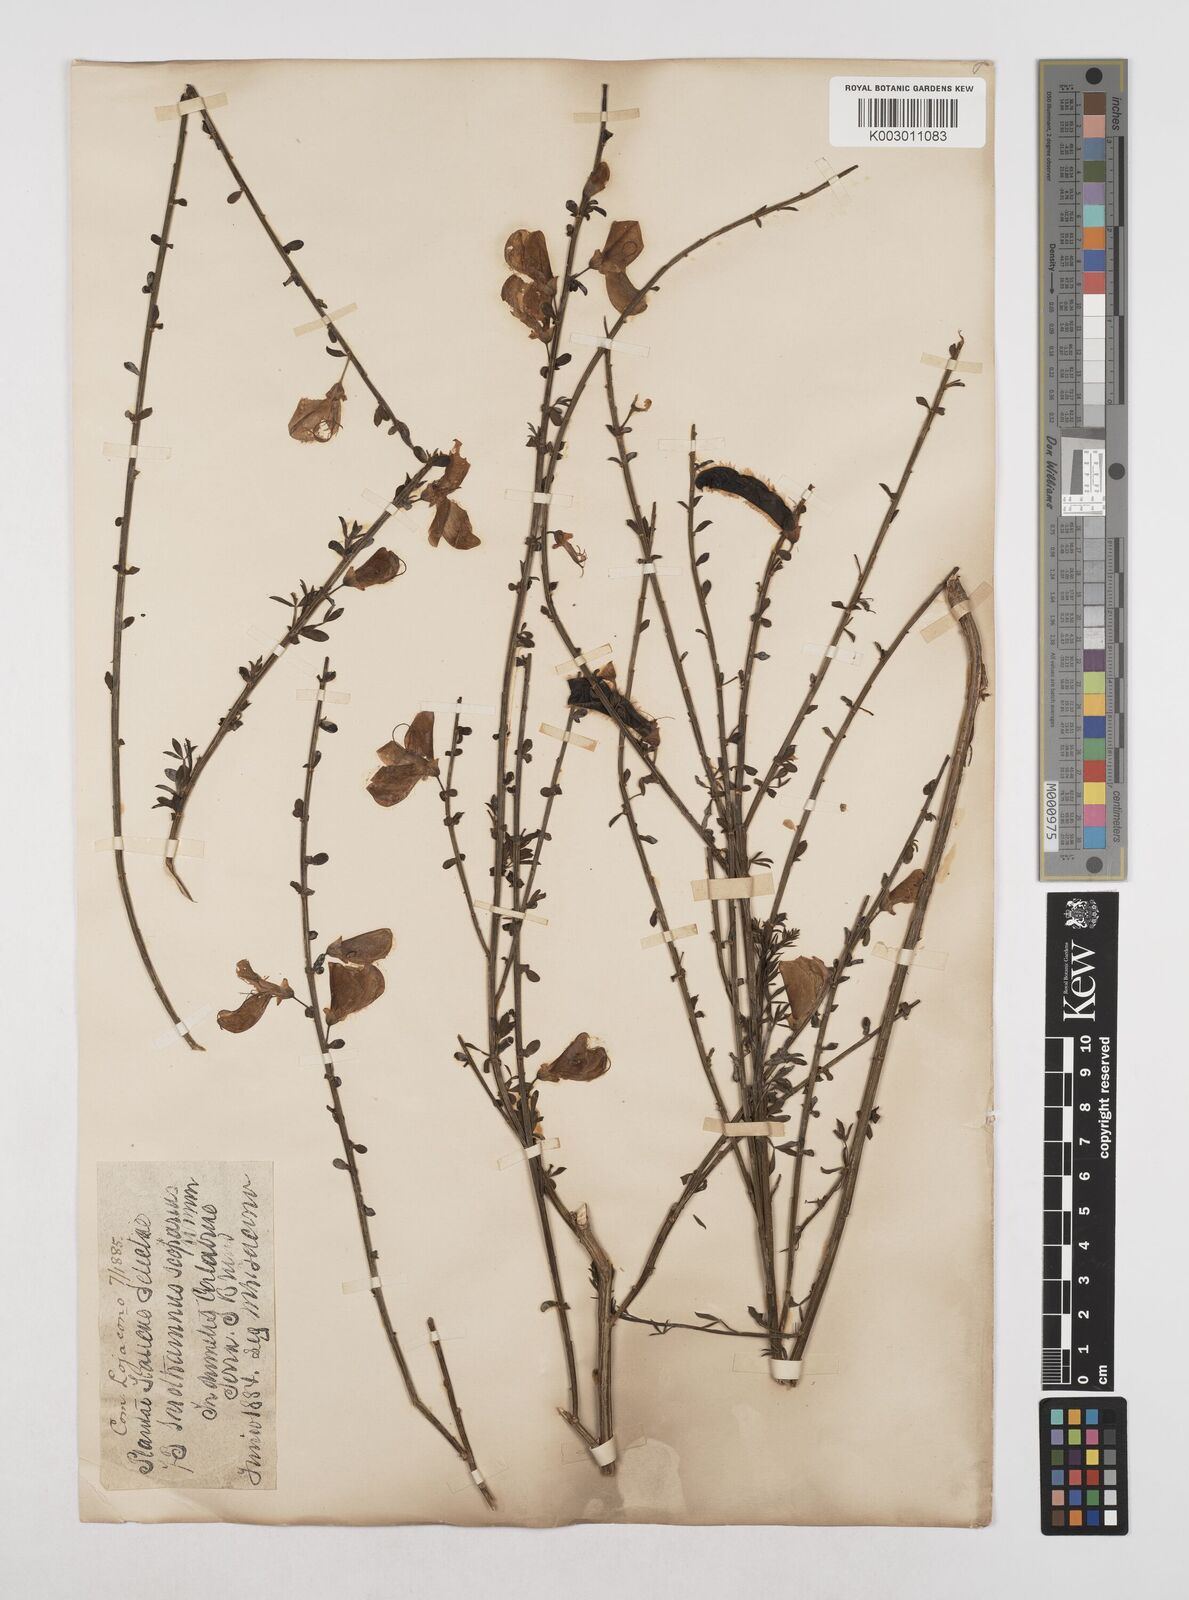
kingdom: Plantae
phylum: Tracheophyta
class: Magnoliopsida
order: Fabales
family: Fabaceae
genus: Cytisus
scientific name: Cytisus scoparius
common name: Scotch broom
